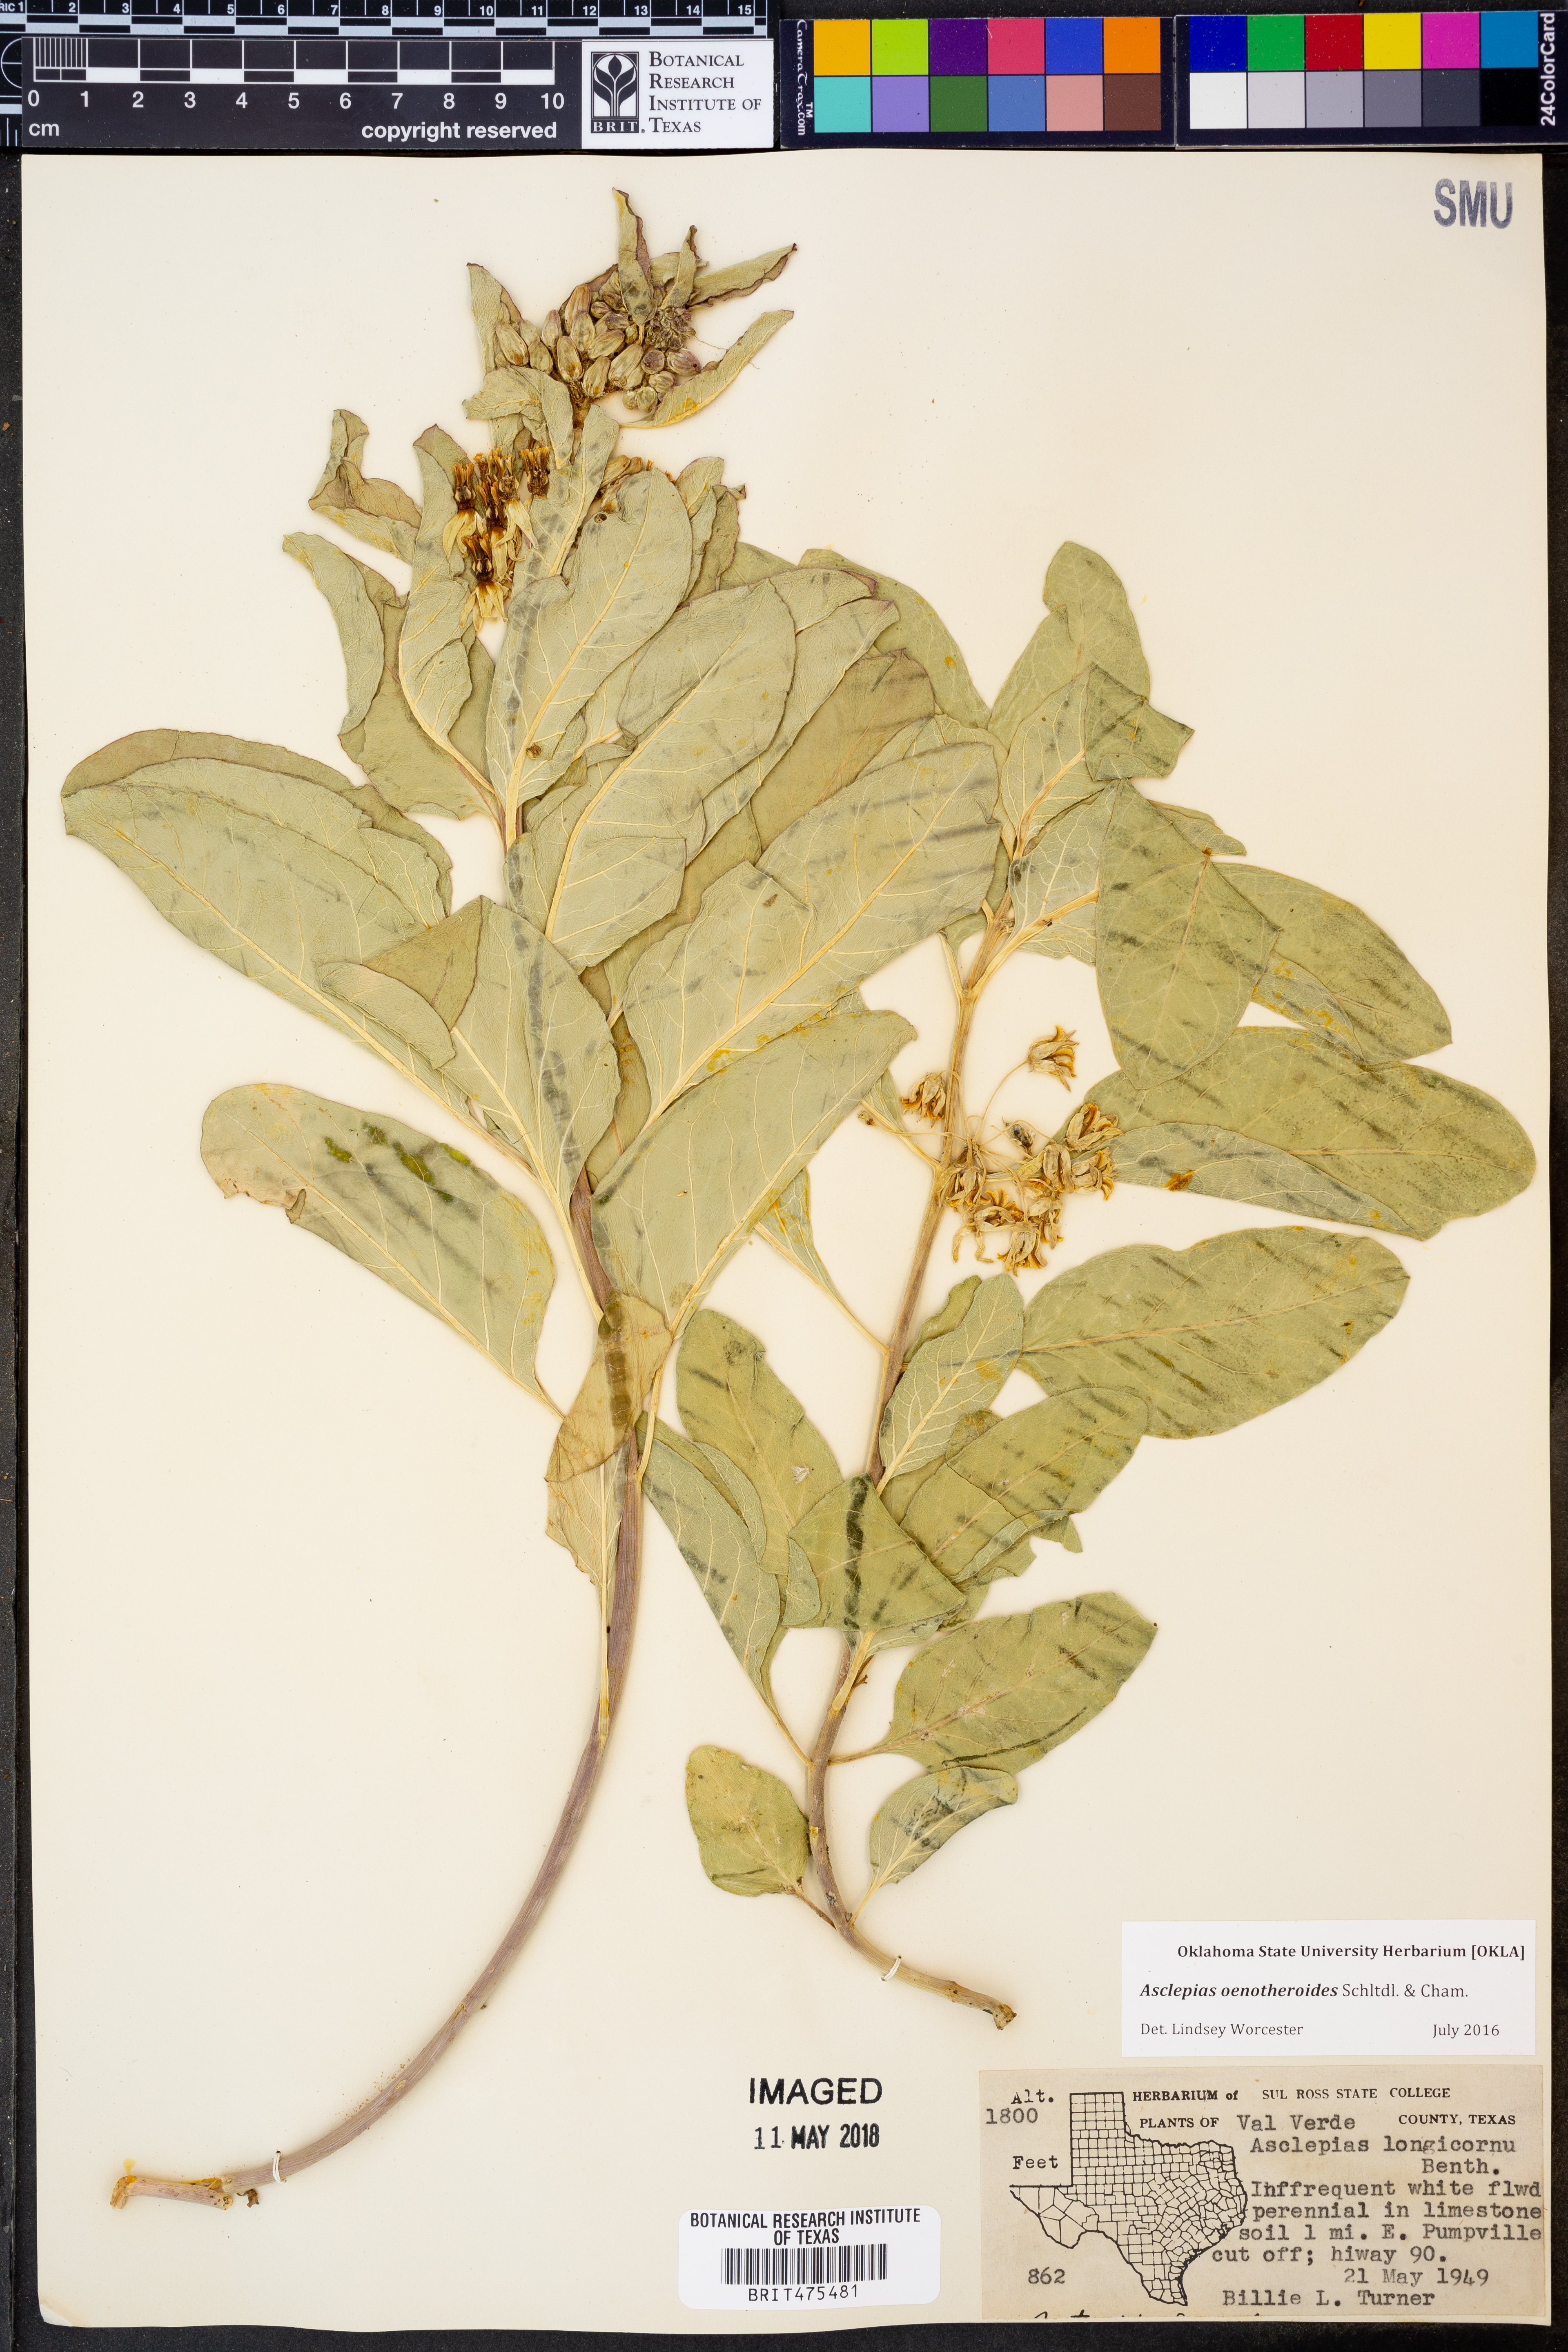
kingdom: Plantae
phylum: Tracheophyta
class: Magnoliopsida
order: Gentianales
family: Apocynaceae
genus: Asclepias
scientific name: Asclepias oenotheroides
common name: Zizotes milkweed
